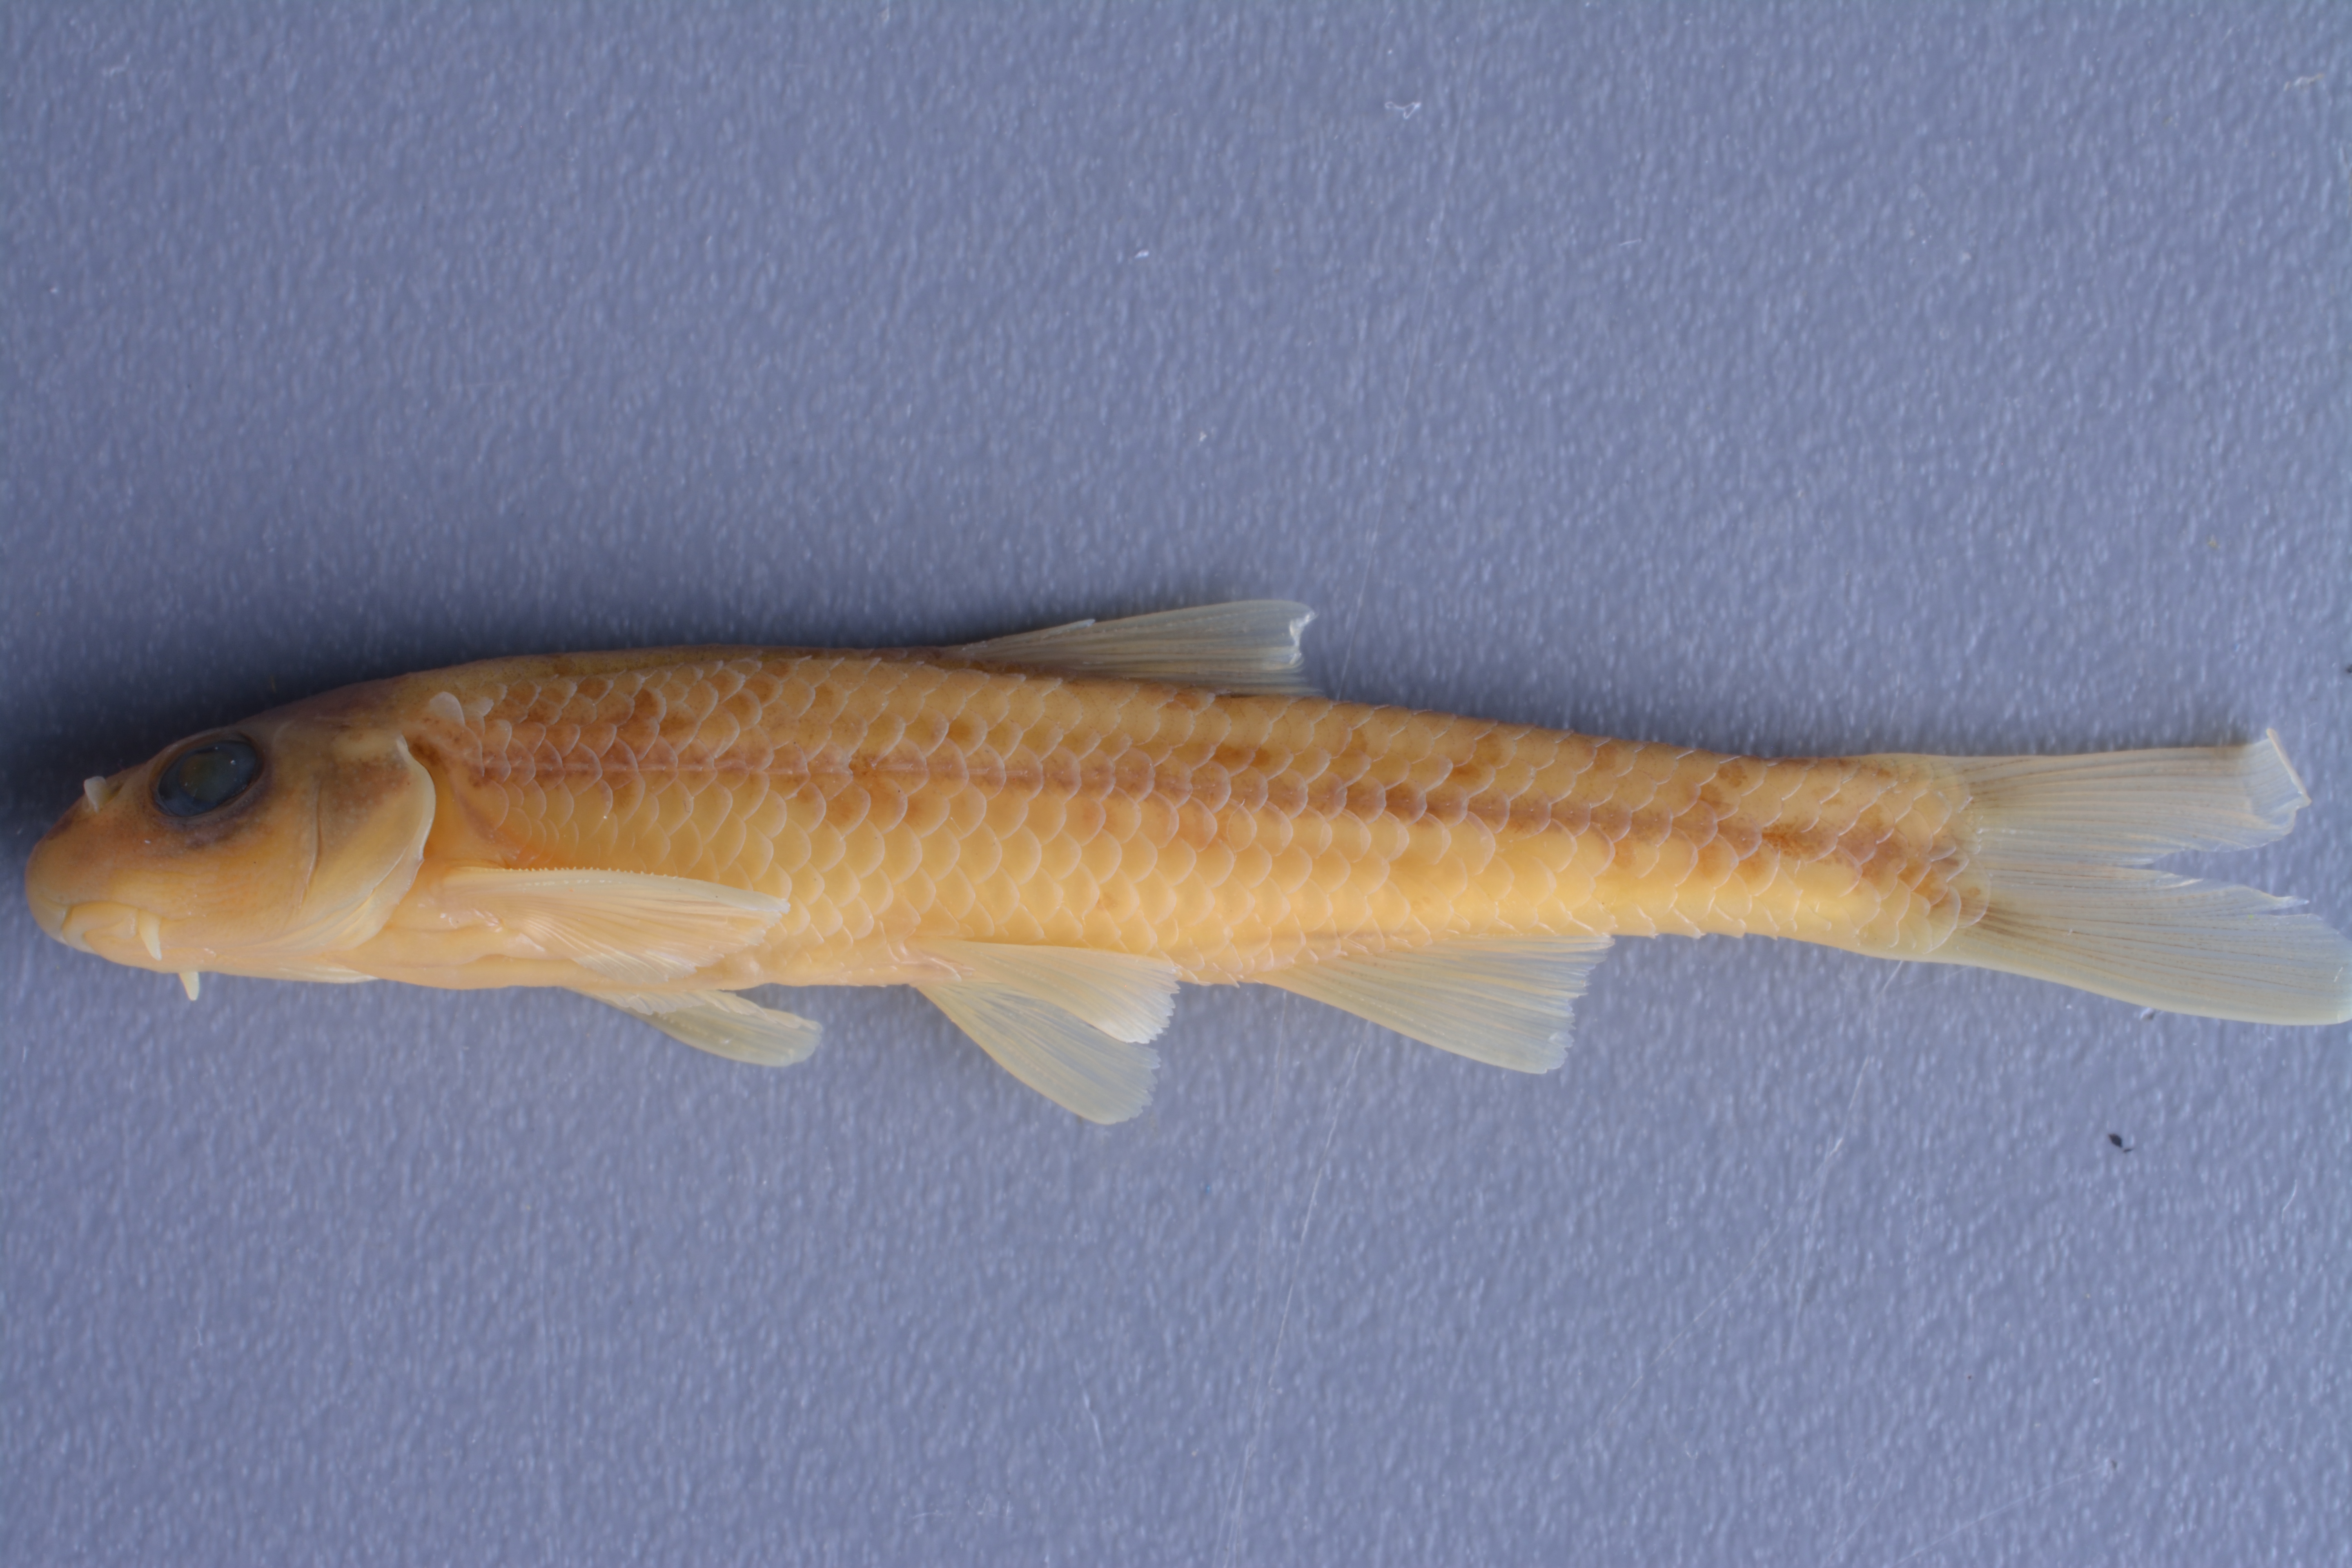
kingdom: Animalia
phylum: Chordata
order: Cypriniformes
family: Cyprinidae
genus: Macrhybopsis
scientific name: Macrhybopsis marconis
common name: Burrhead chub
